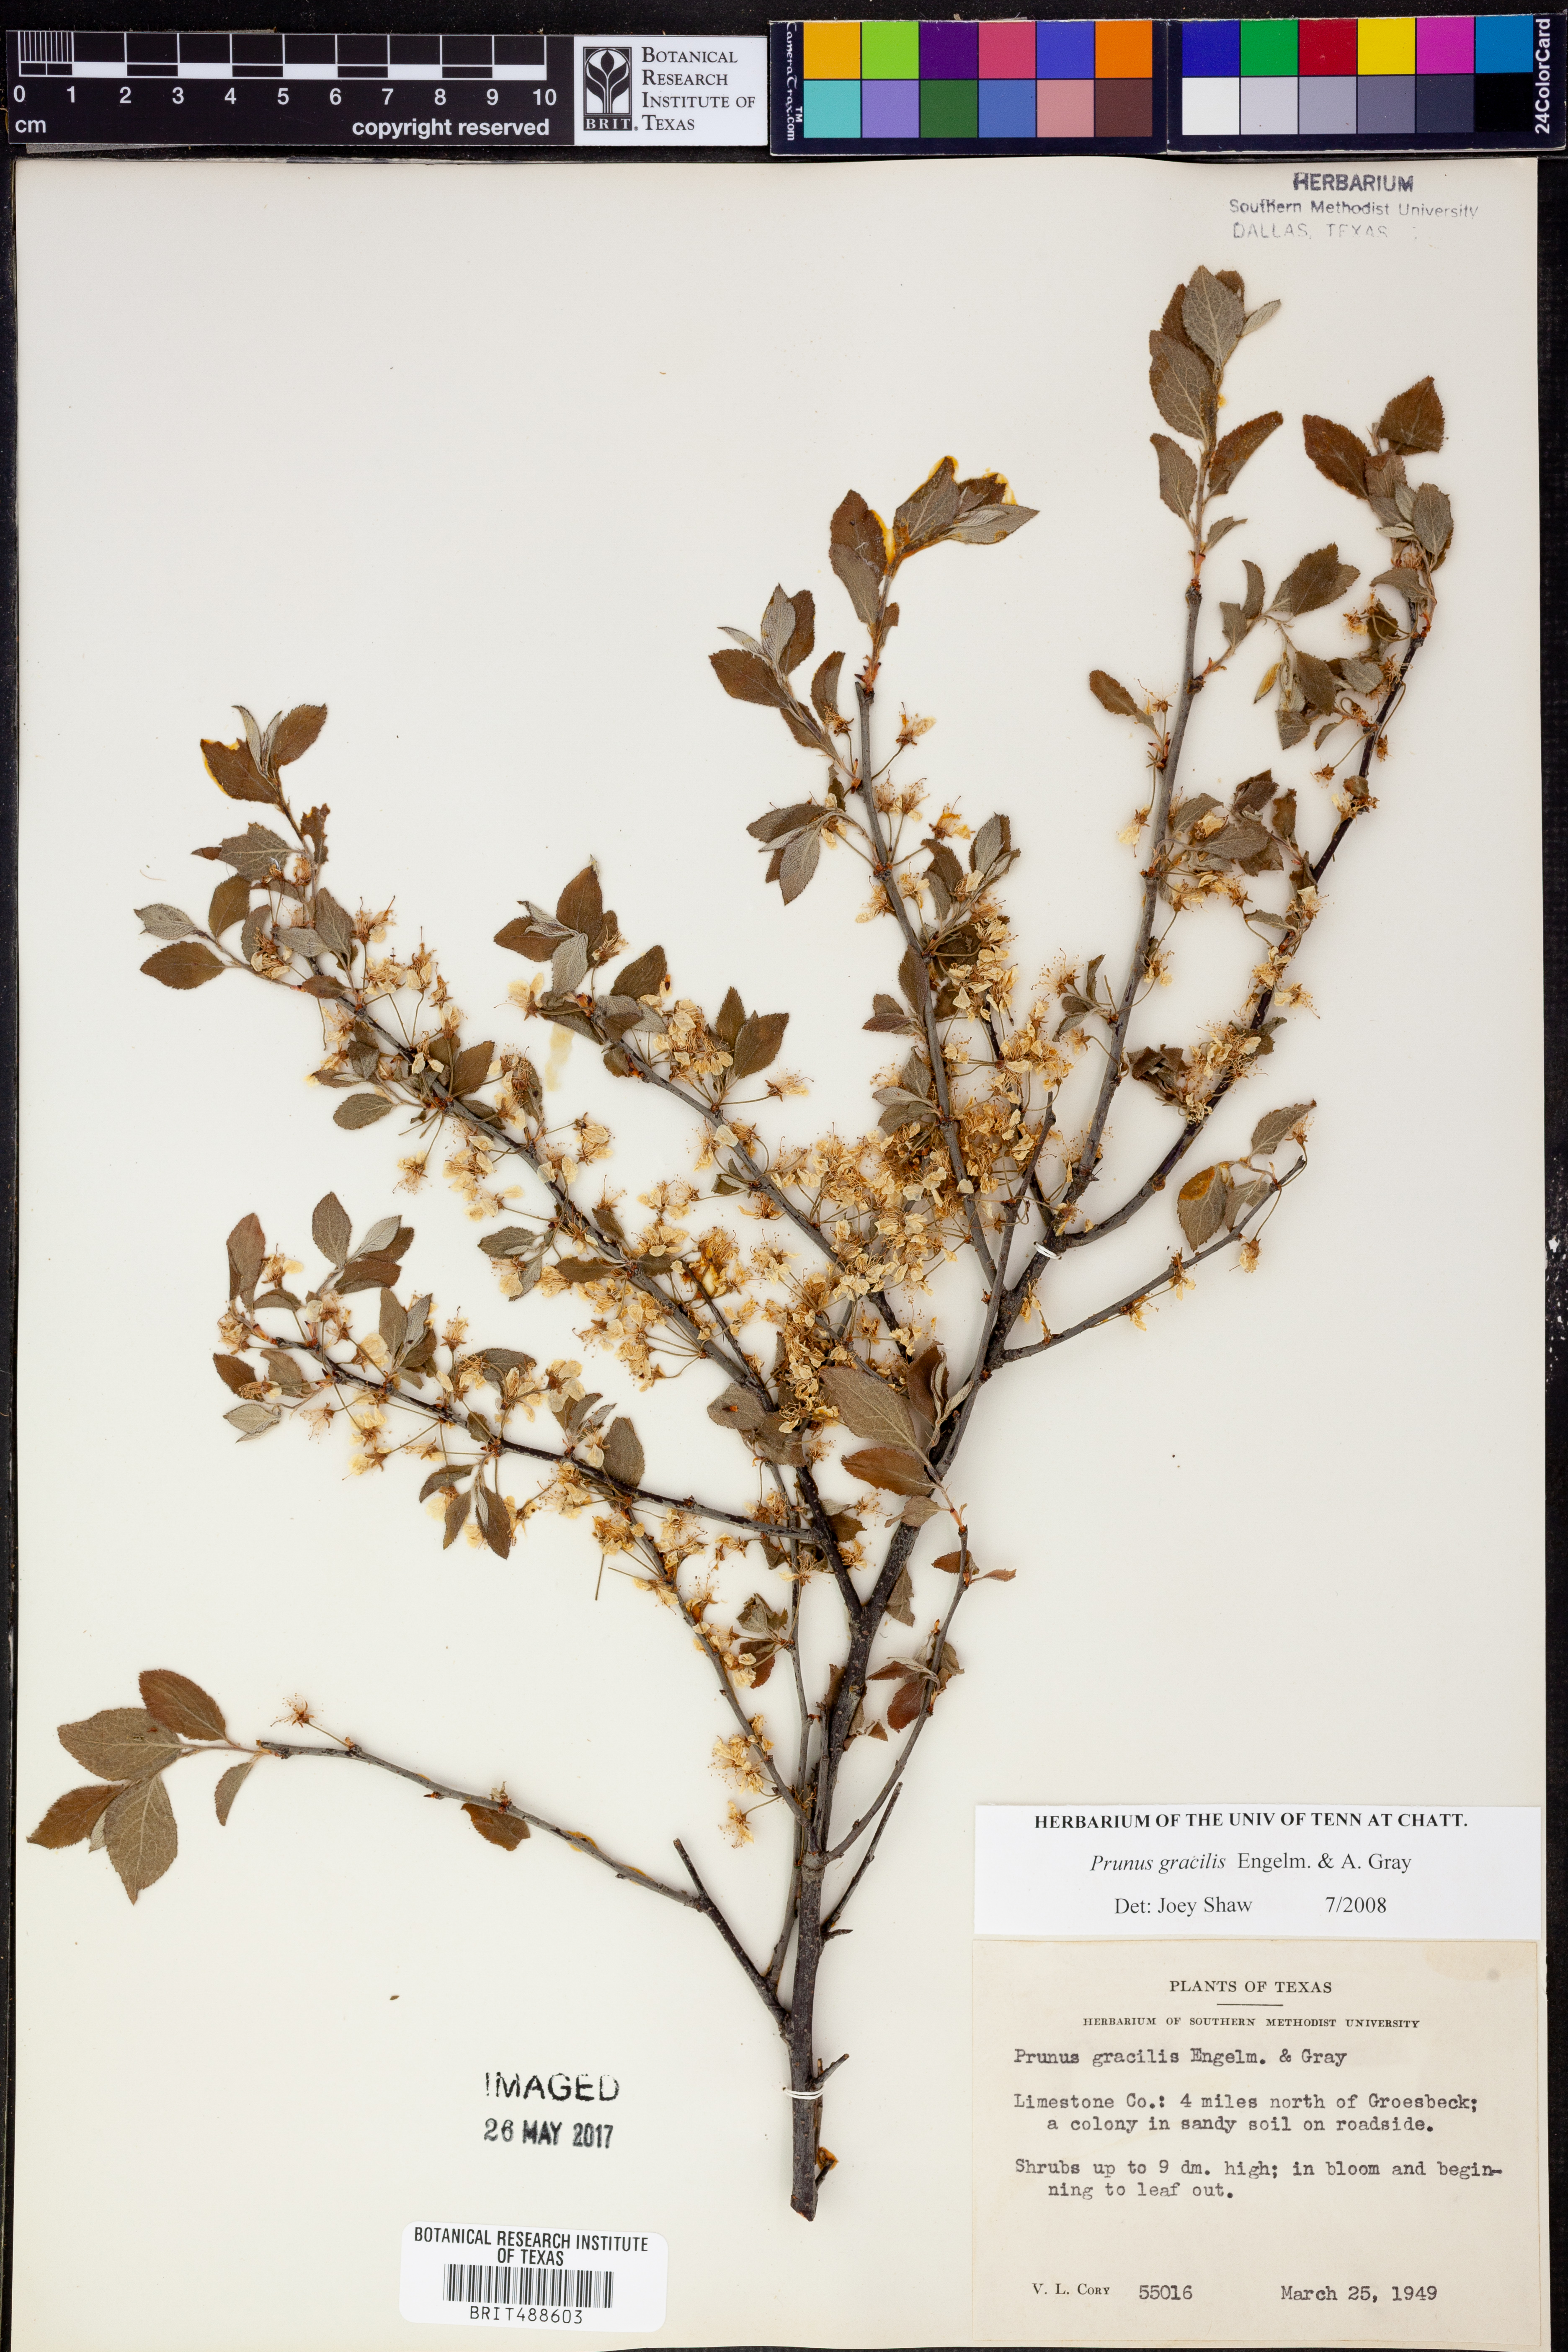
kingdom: Plantae
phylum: Tracheophyta
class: Magnoliopsida
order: Rosales
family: Rosaceae
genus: Prunus
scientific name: Prunus gracilis
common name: Oklahoma plum
